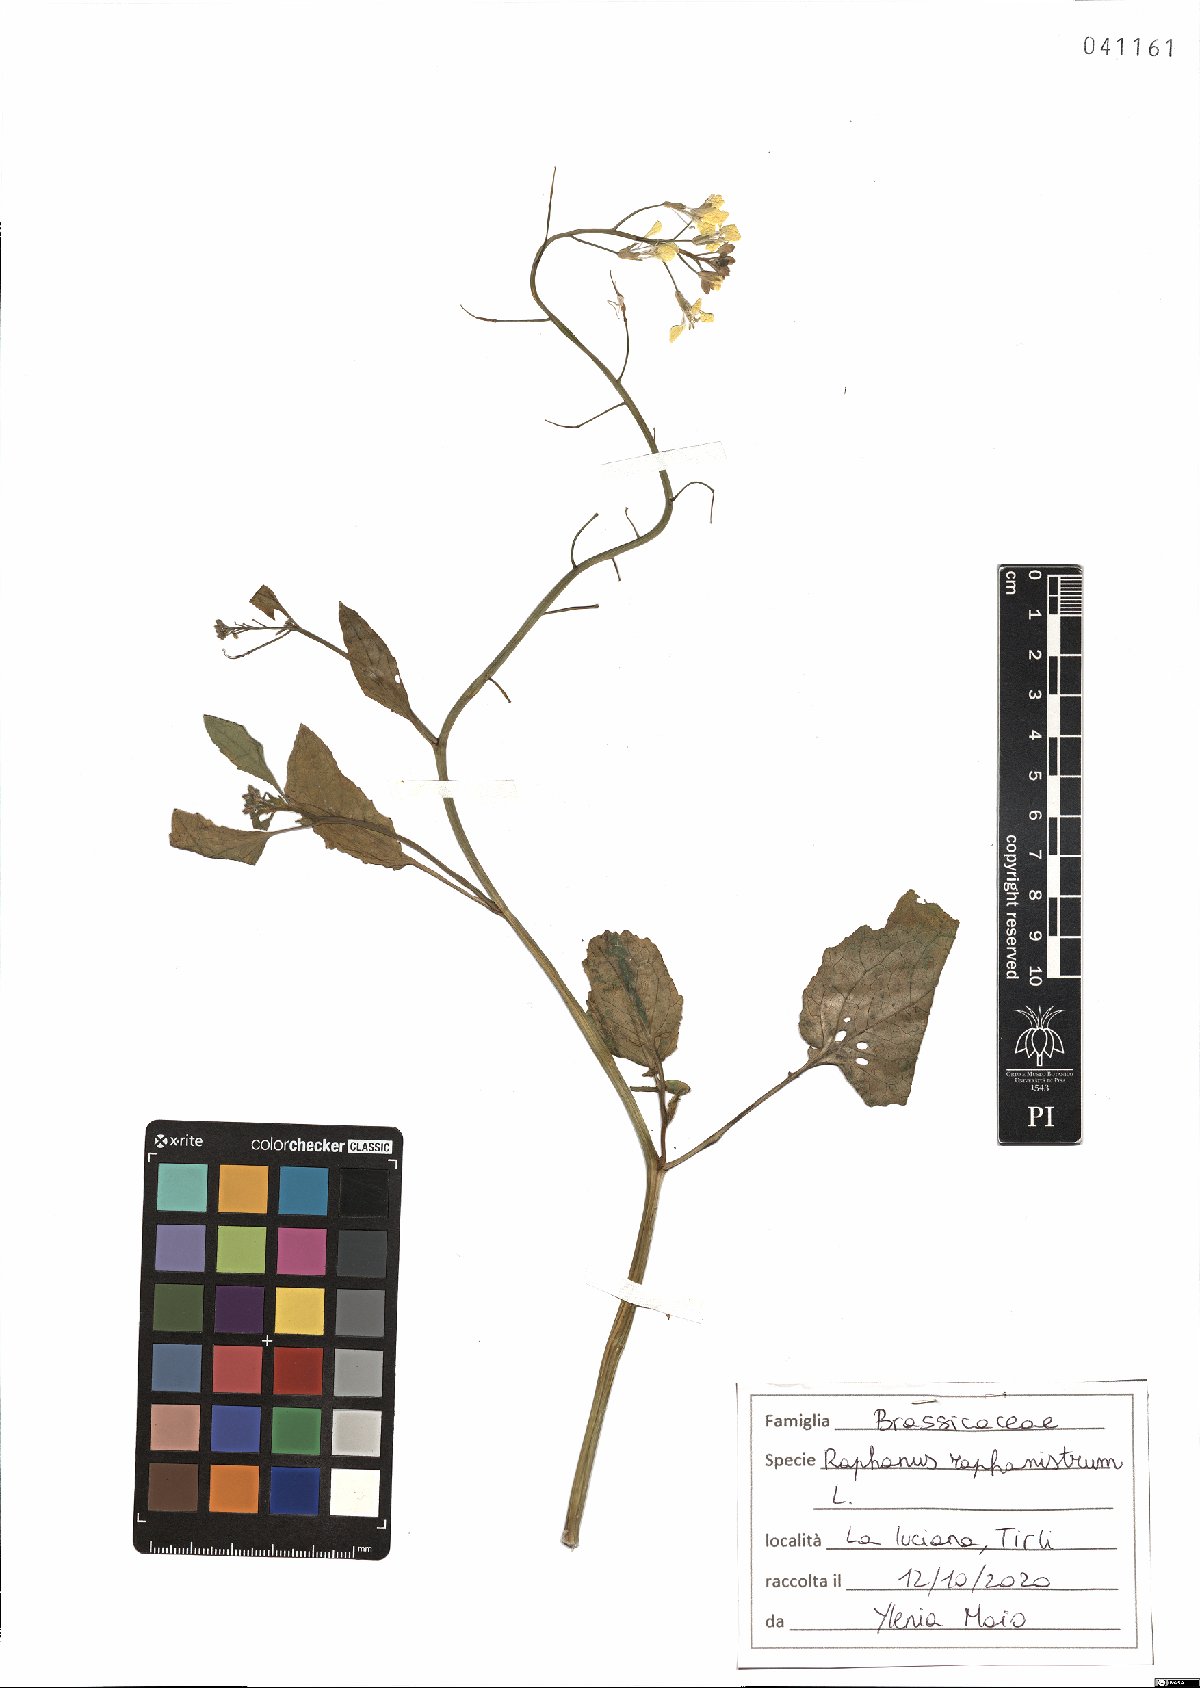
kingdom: Plantae
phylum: Tracheophyta
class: Magnoliopsida
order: Brassicales
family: Brassicaceae
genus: Raphanus
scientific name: Raphanus raphanistrum
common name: Wild radish
